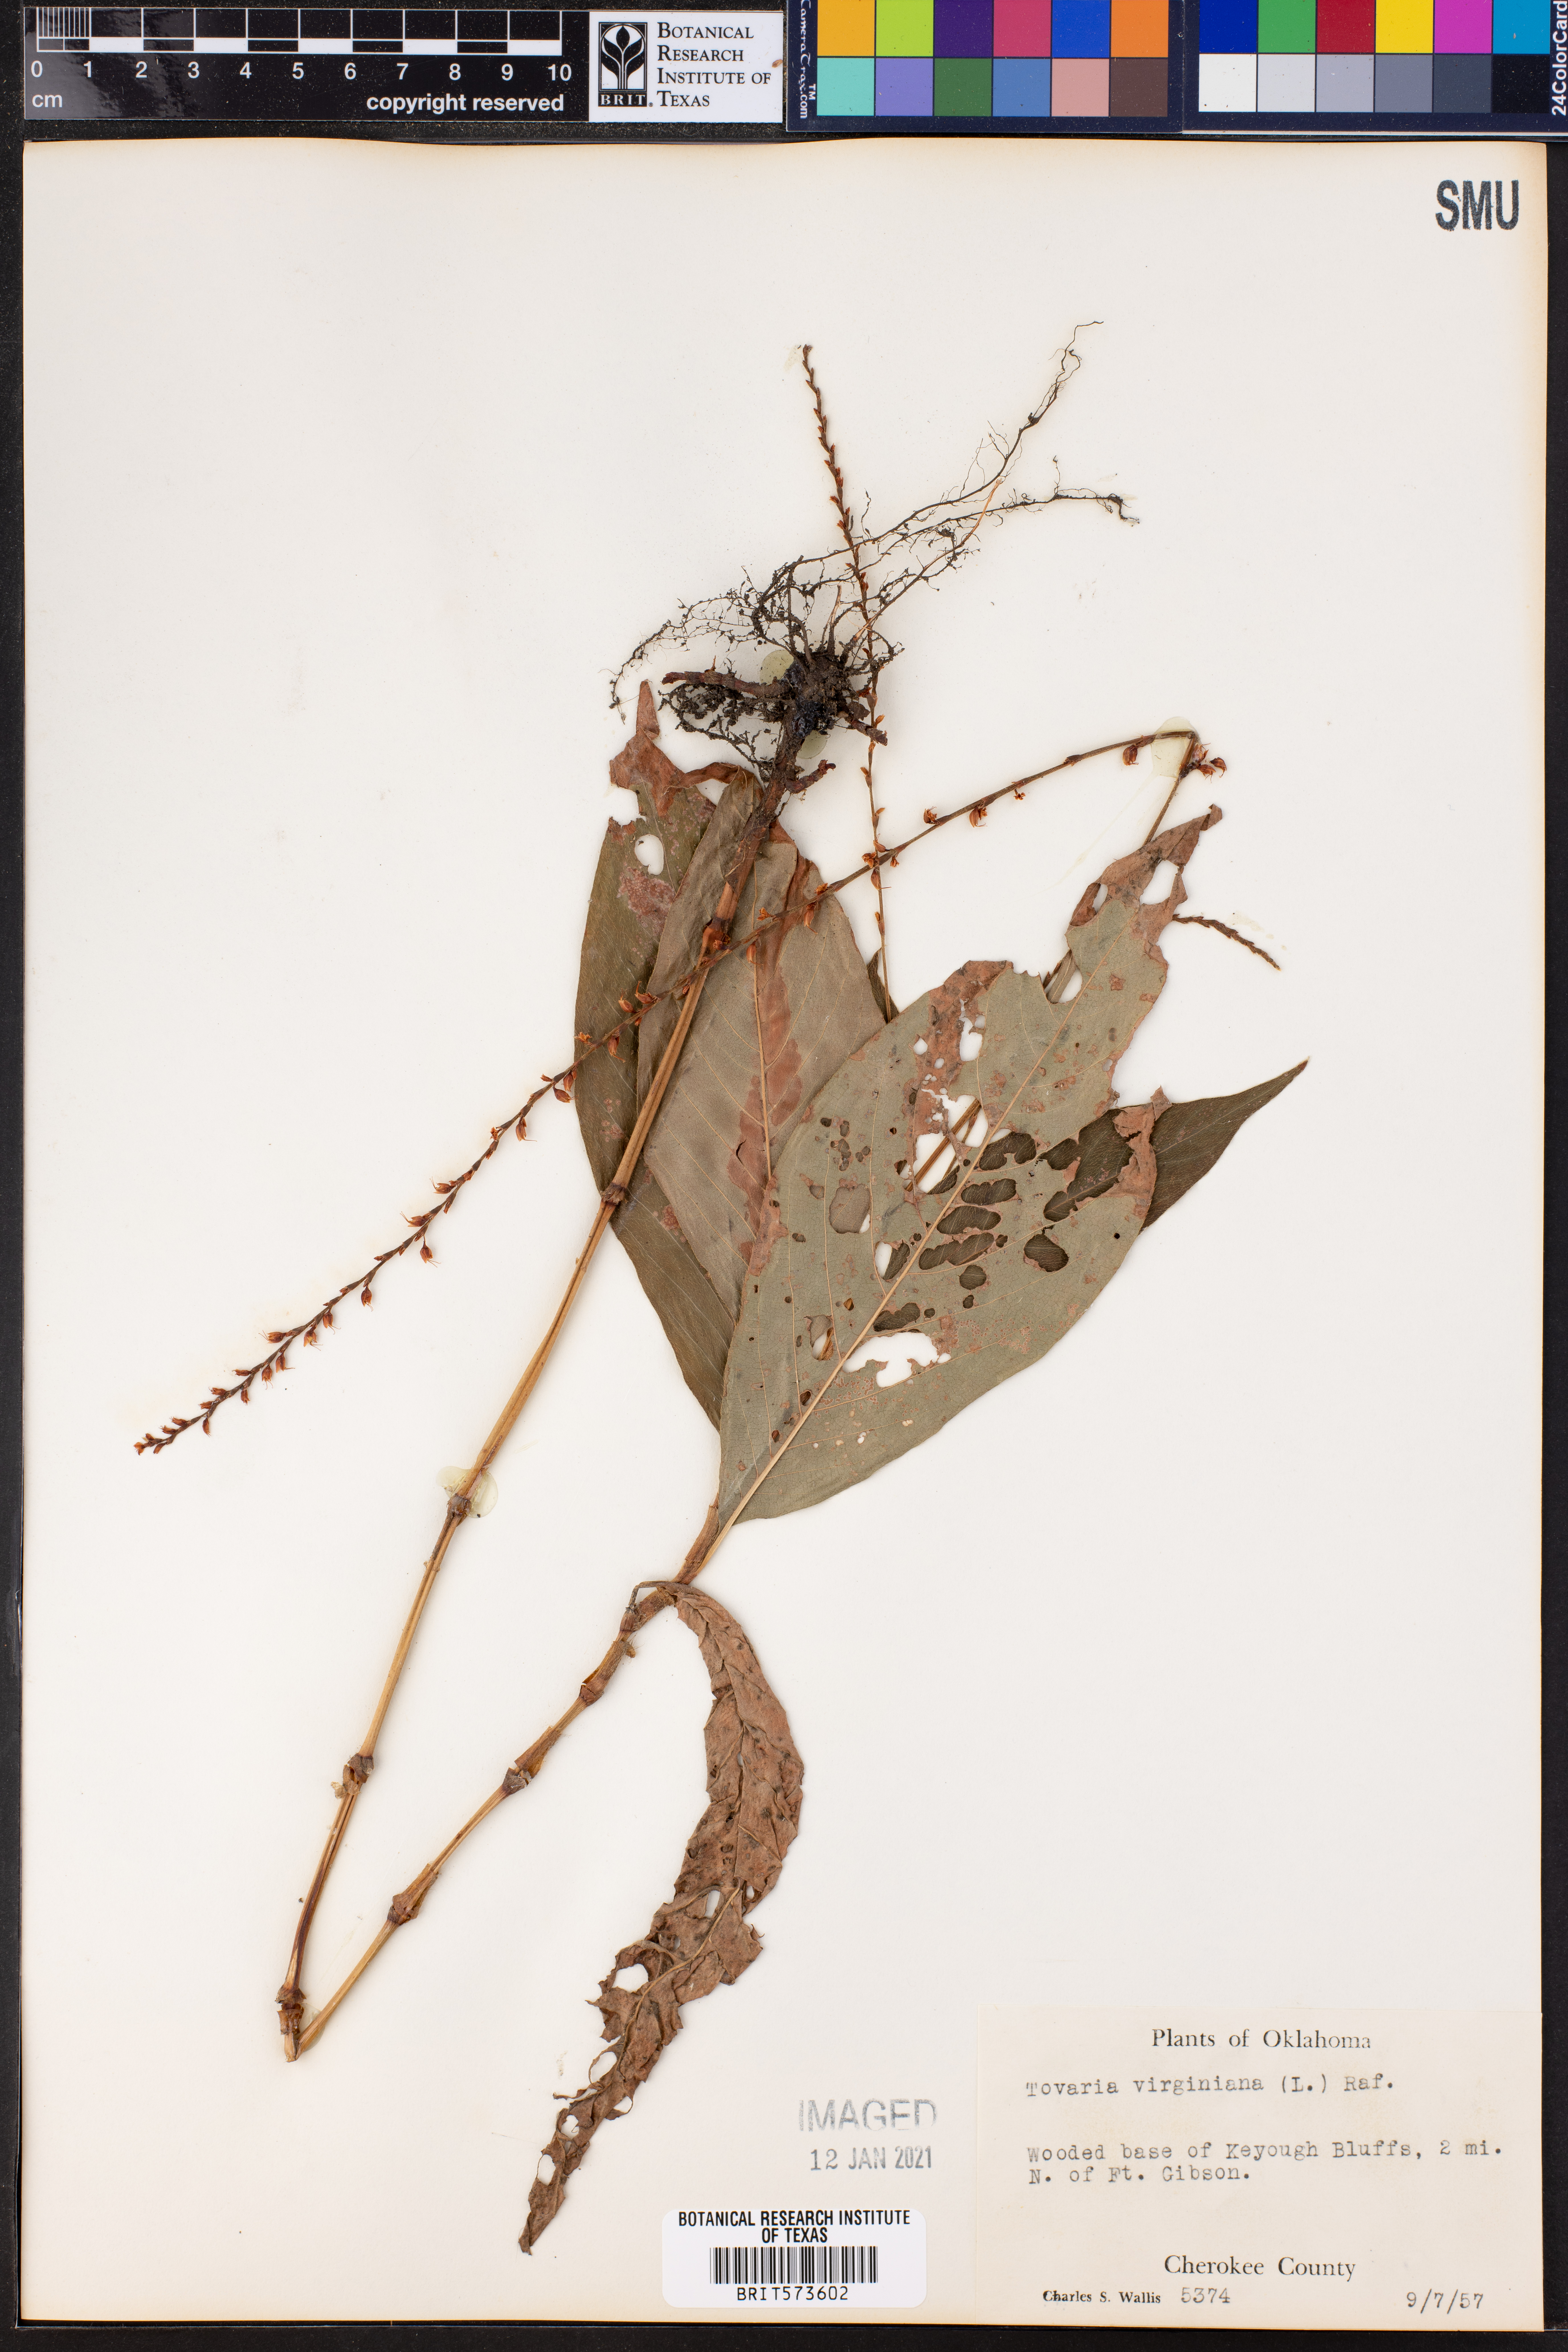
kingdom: Plantae
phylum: Tracheophyta
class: Magnoliopsida
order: Caryophyllales
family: Polygonaceae
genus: Persicaria
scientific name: Persicaria virginiana
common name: Jumpseed
